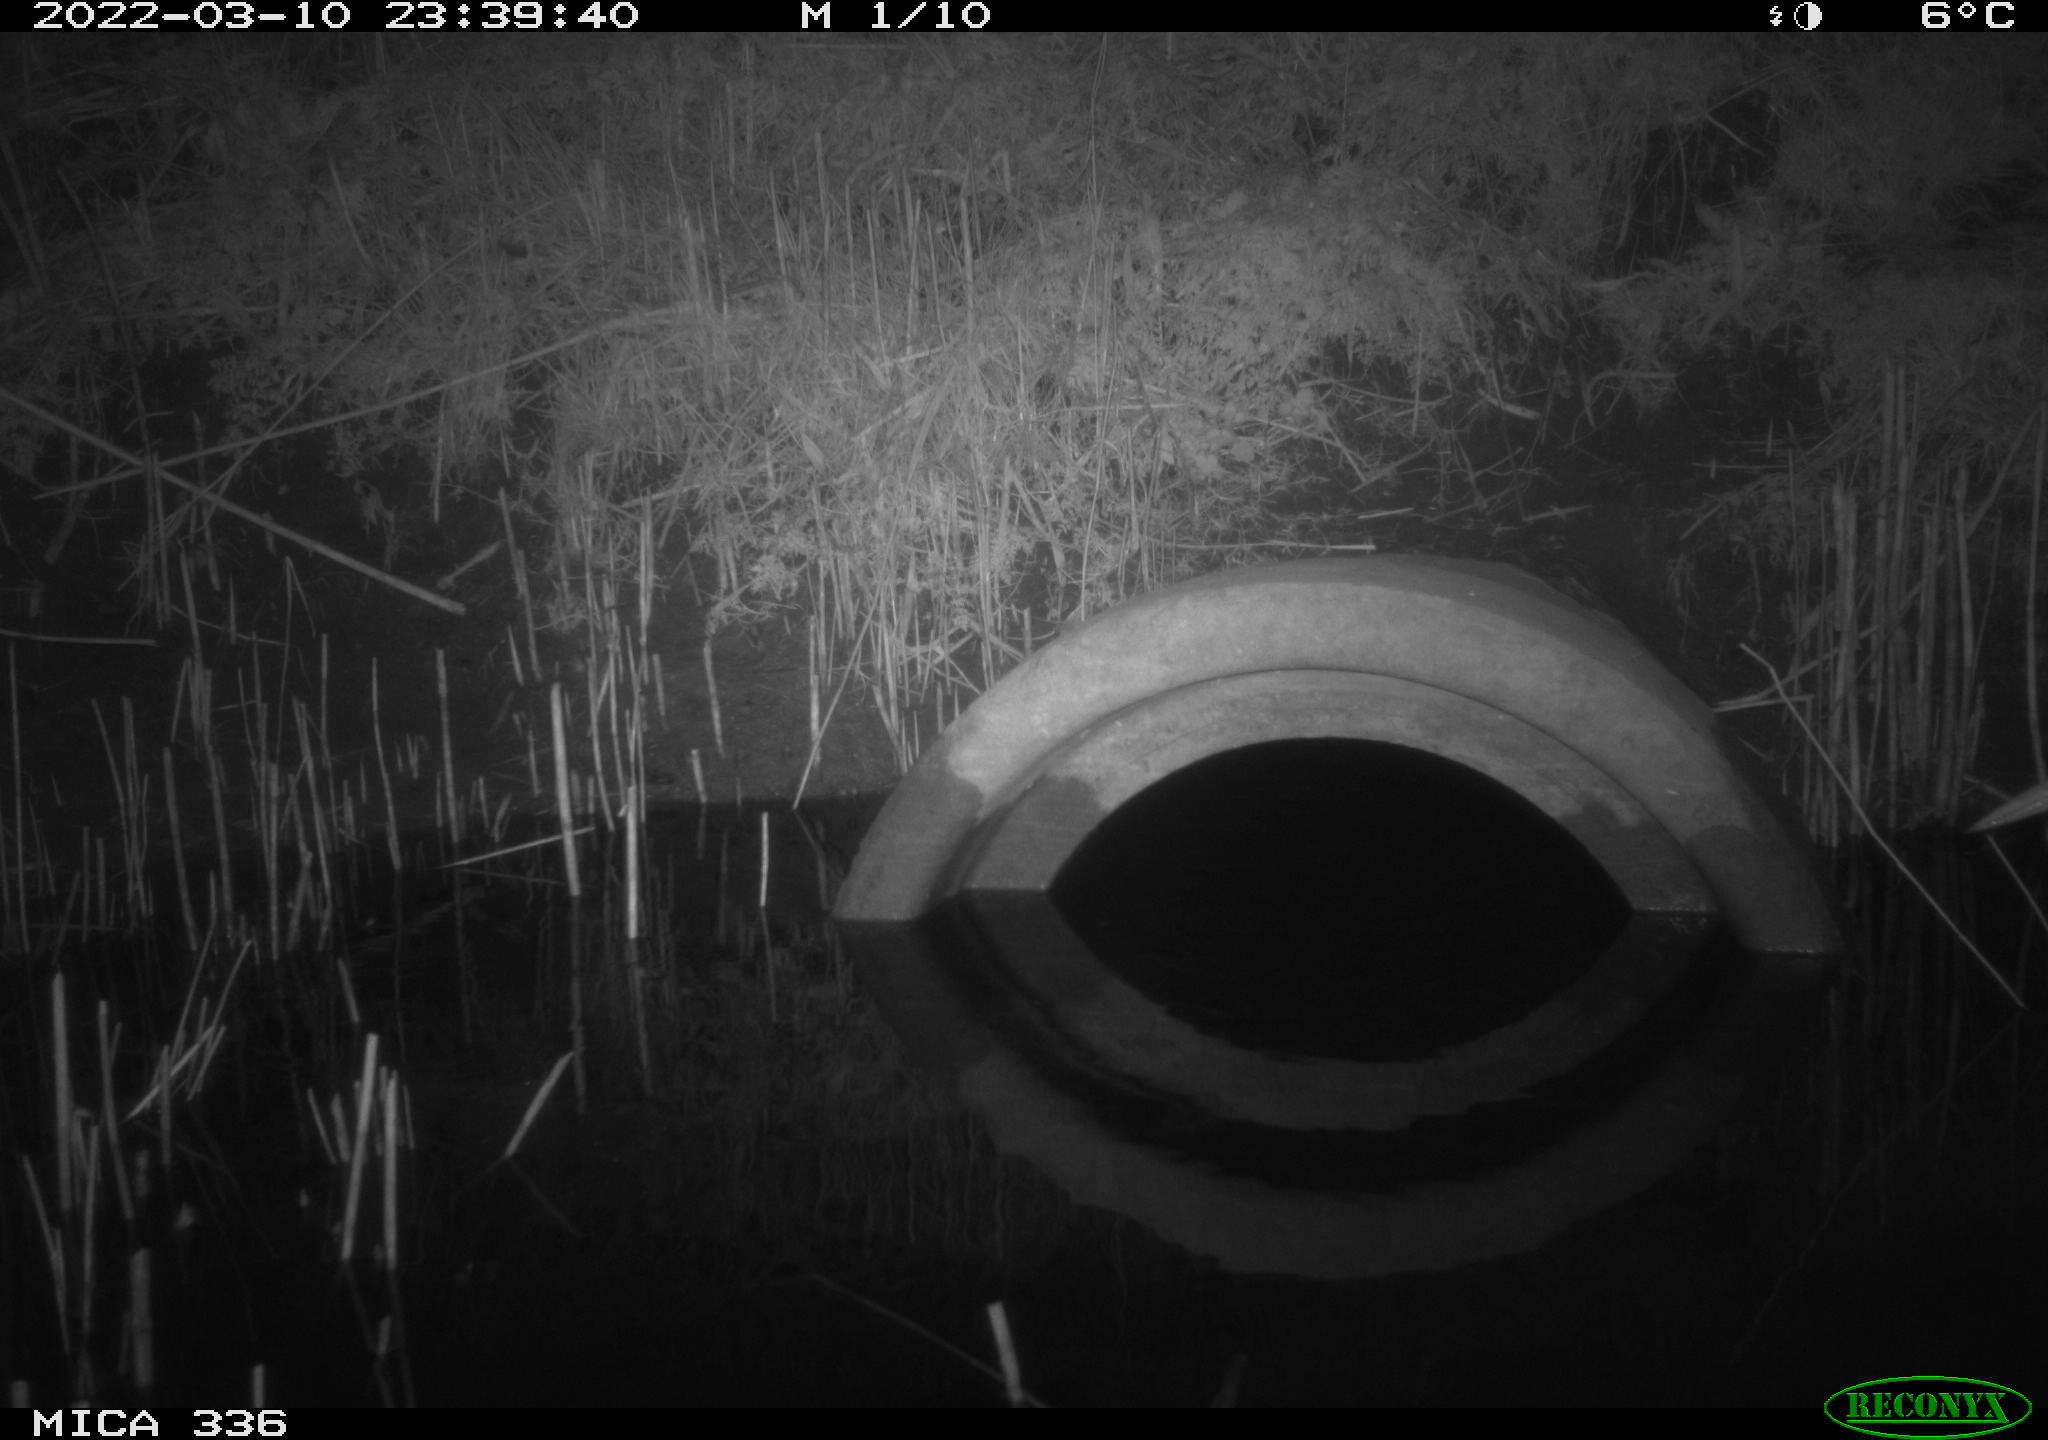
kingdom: Animalia
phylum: Chordata
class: Aves
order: Pelecaniformes
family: Ardeidae
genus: Ardea
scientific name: Ardea cinerea
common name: Grey heron
